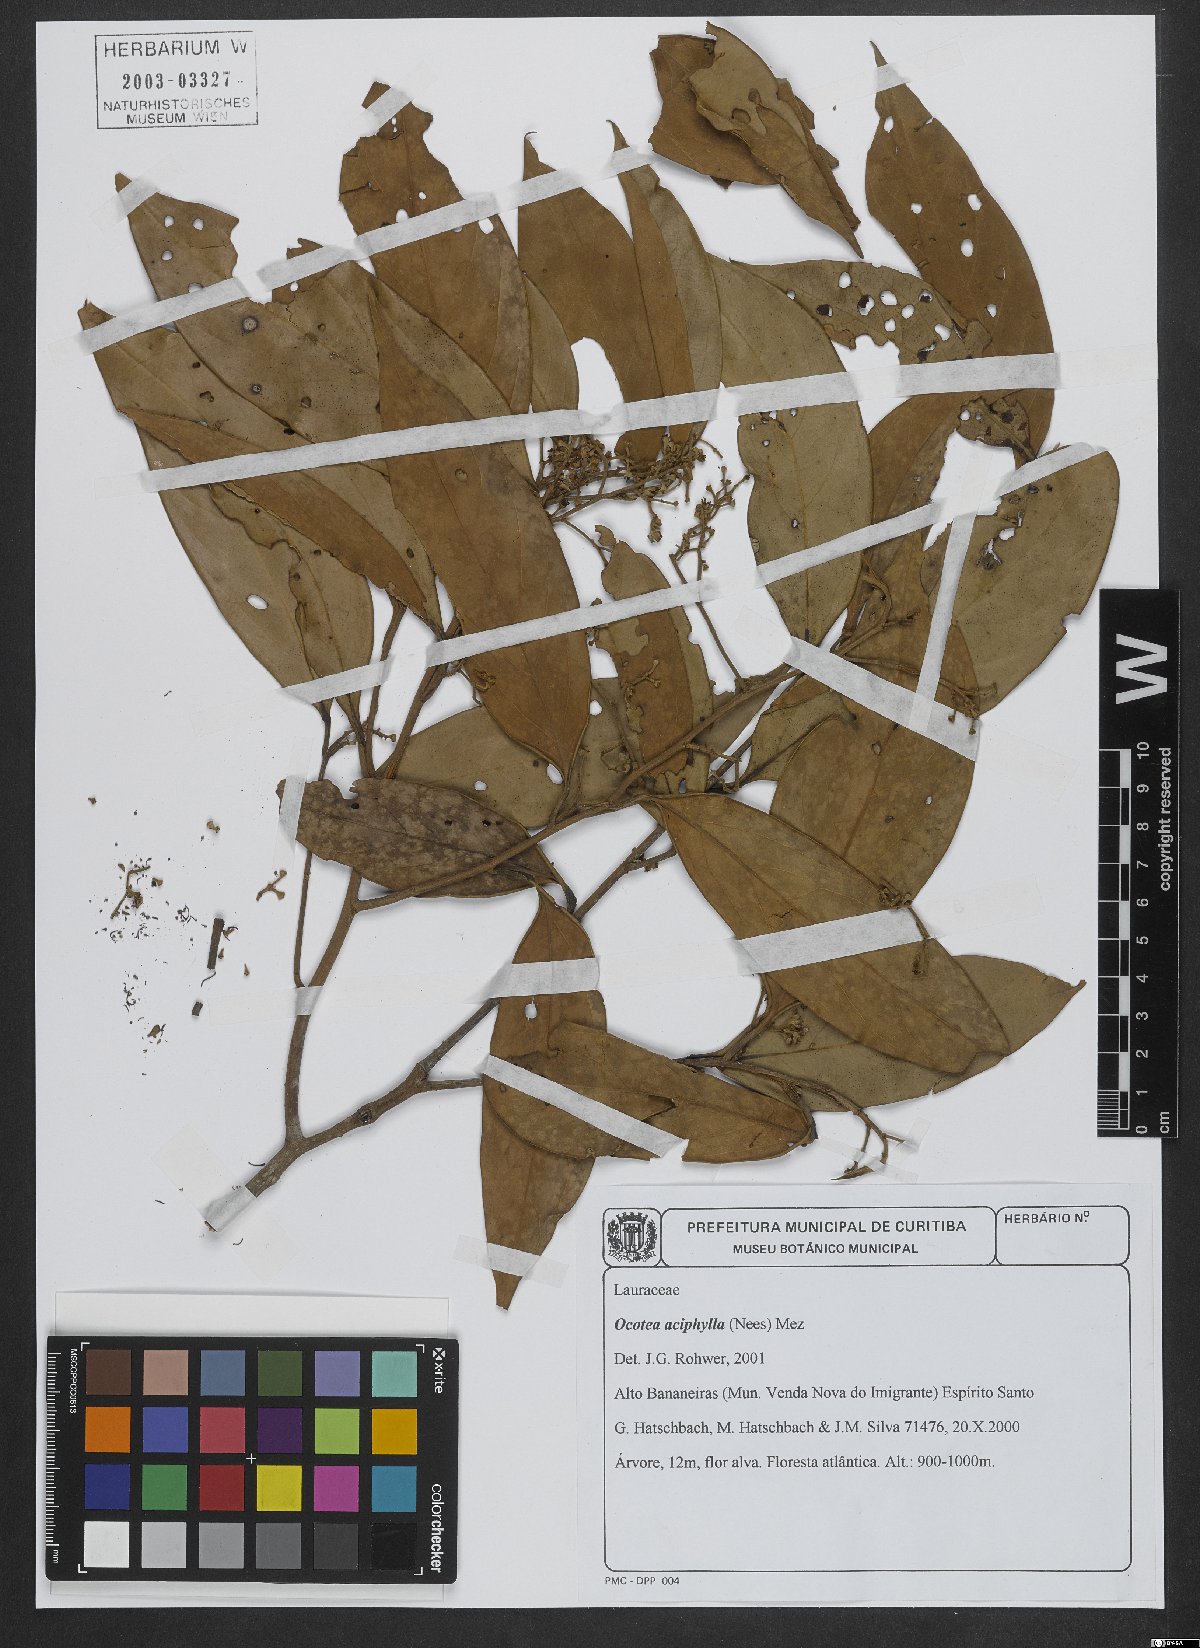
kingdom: Plantae
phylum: Tracheophyta
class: Magnoliopsida
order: Laurales
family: Lauraceae
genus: Ocotea
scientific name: Ocotea aciphylla
